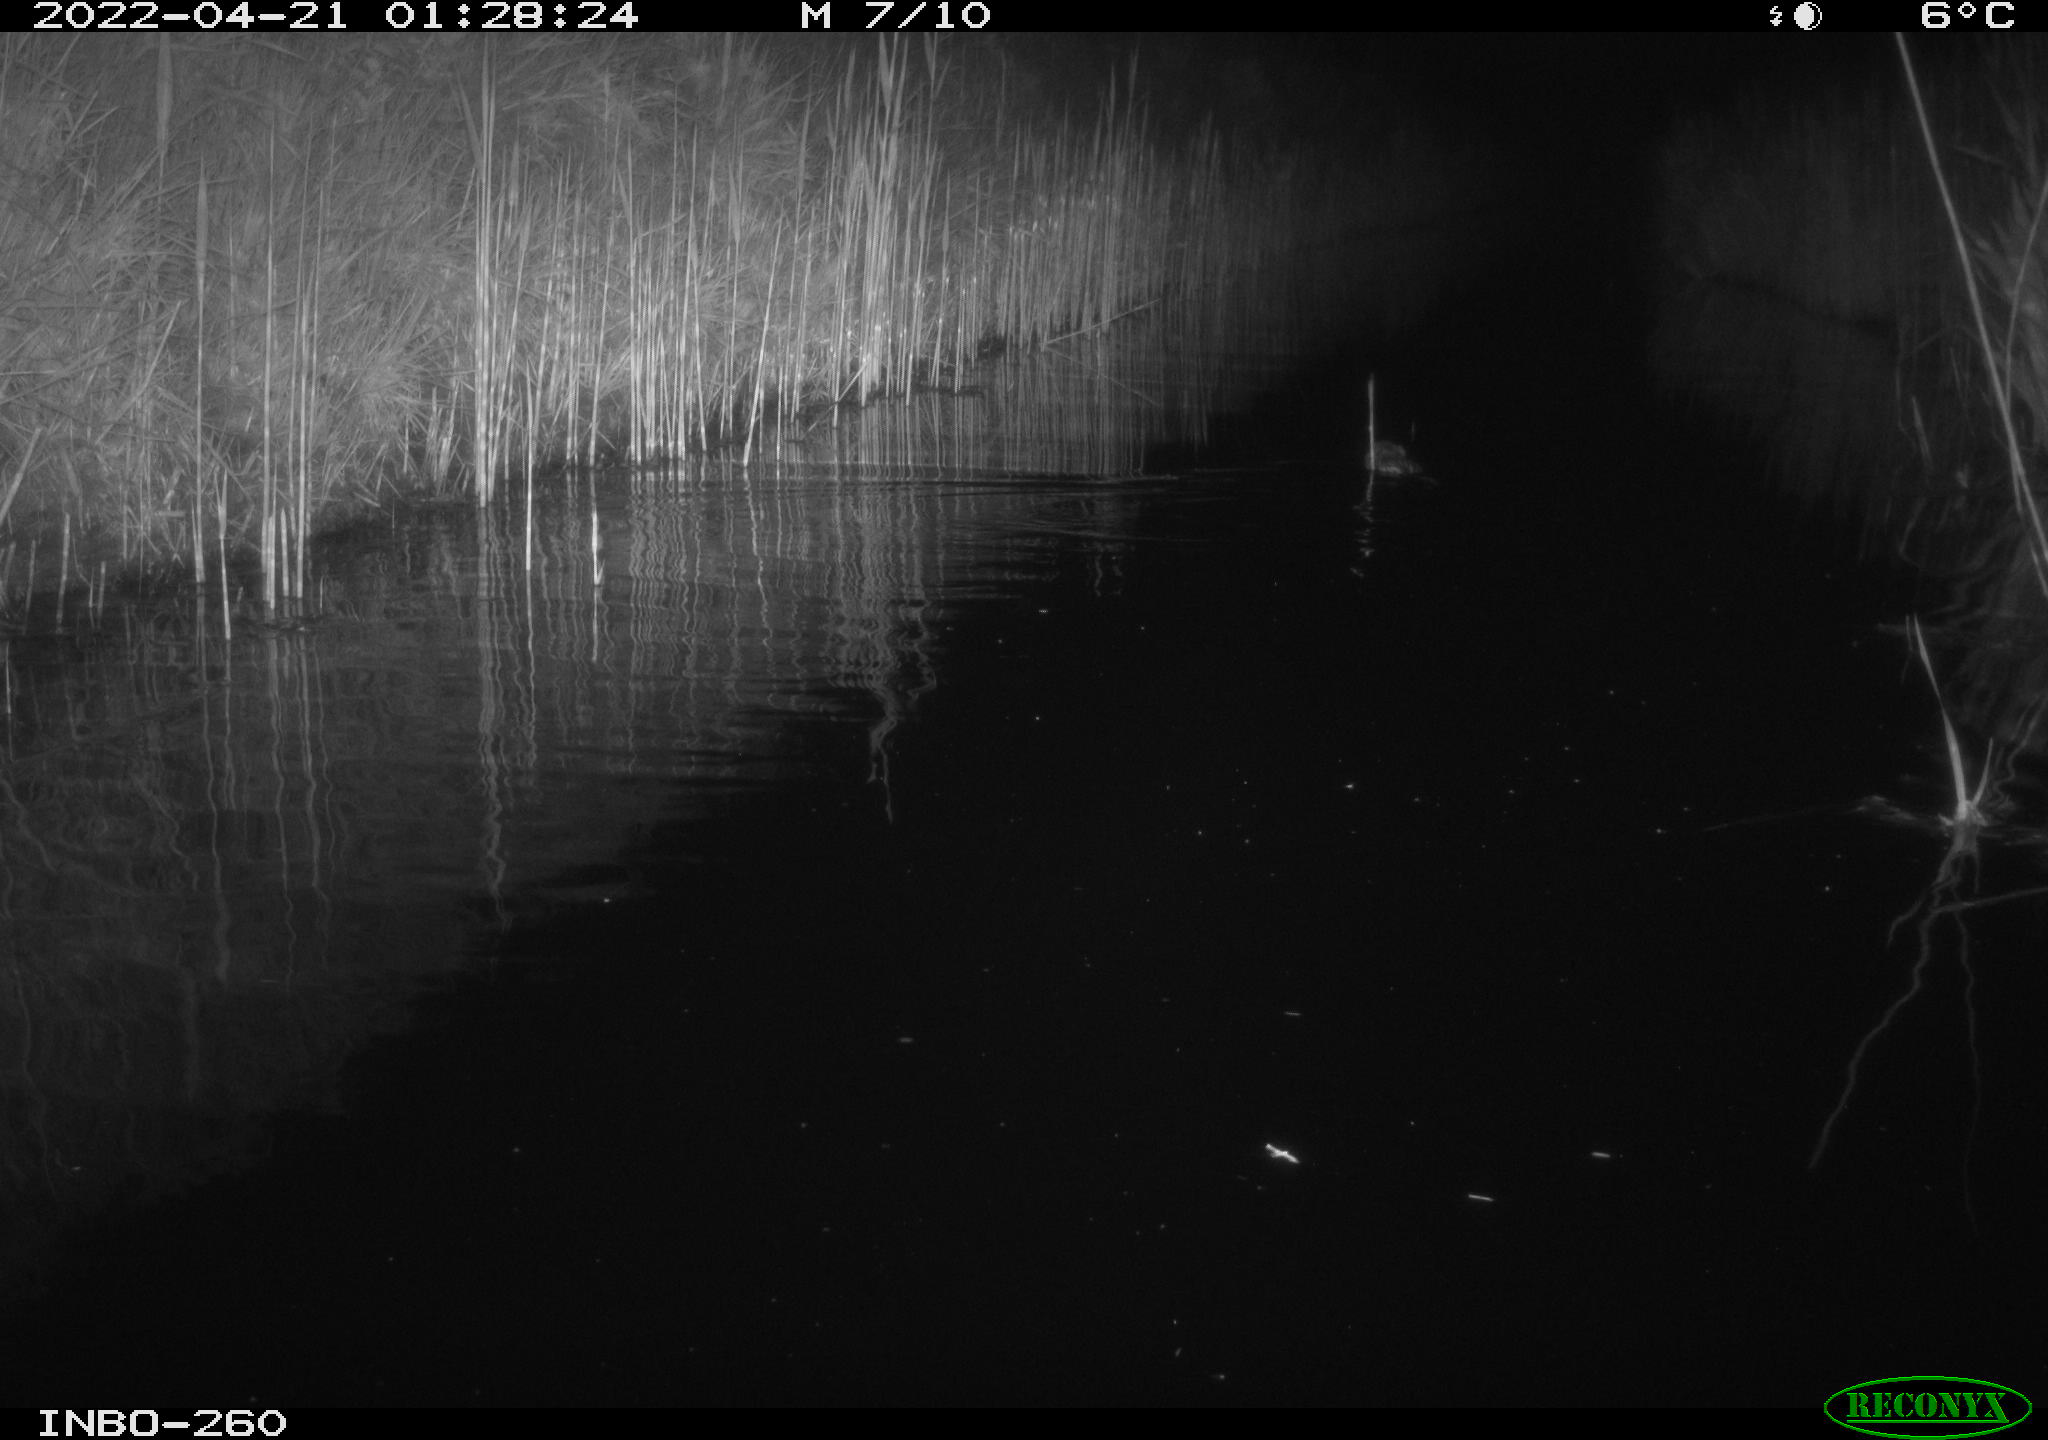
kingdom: Animalia
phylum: Chordata
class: Mammalia
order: Rodentia
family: Cricetidae
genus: Ondatra
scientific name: Ondatra zibethicus
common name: Muskrat
